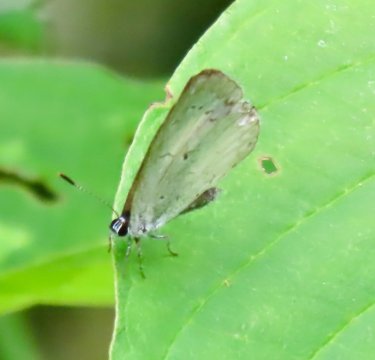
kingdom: Animalia
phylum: Arthropoda
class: Insecta
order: Lepidoptera
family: Lycaenidae
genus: Cyaniris
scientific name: Cyaniris neglecta
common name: Summer Azure
